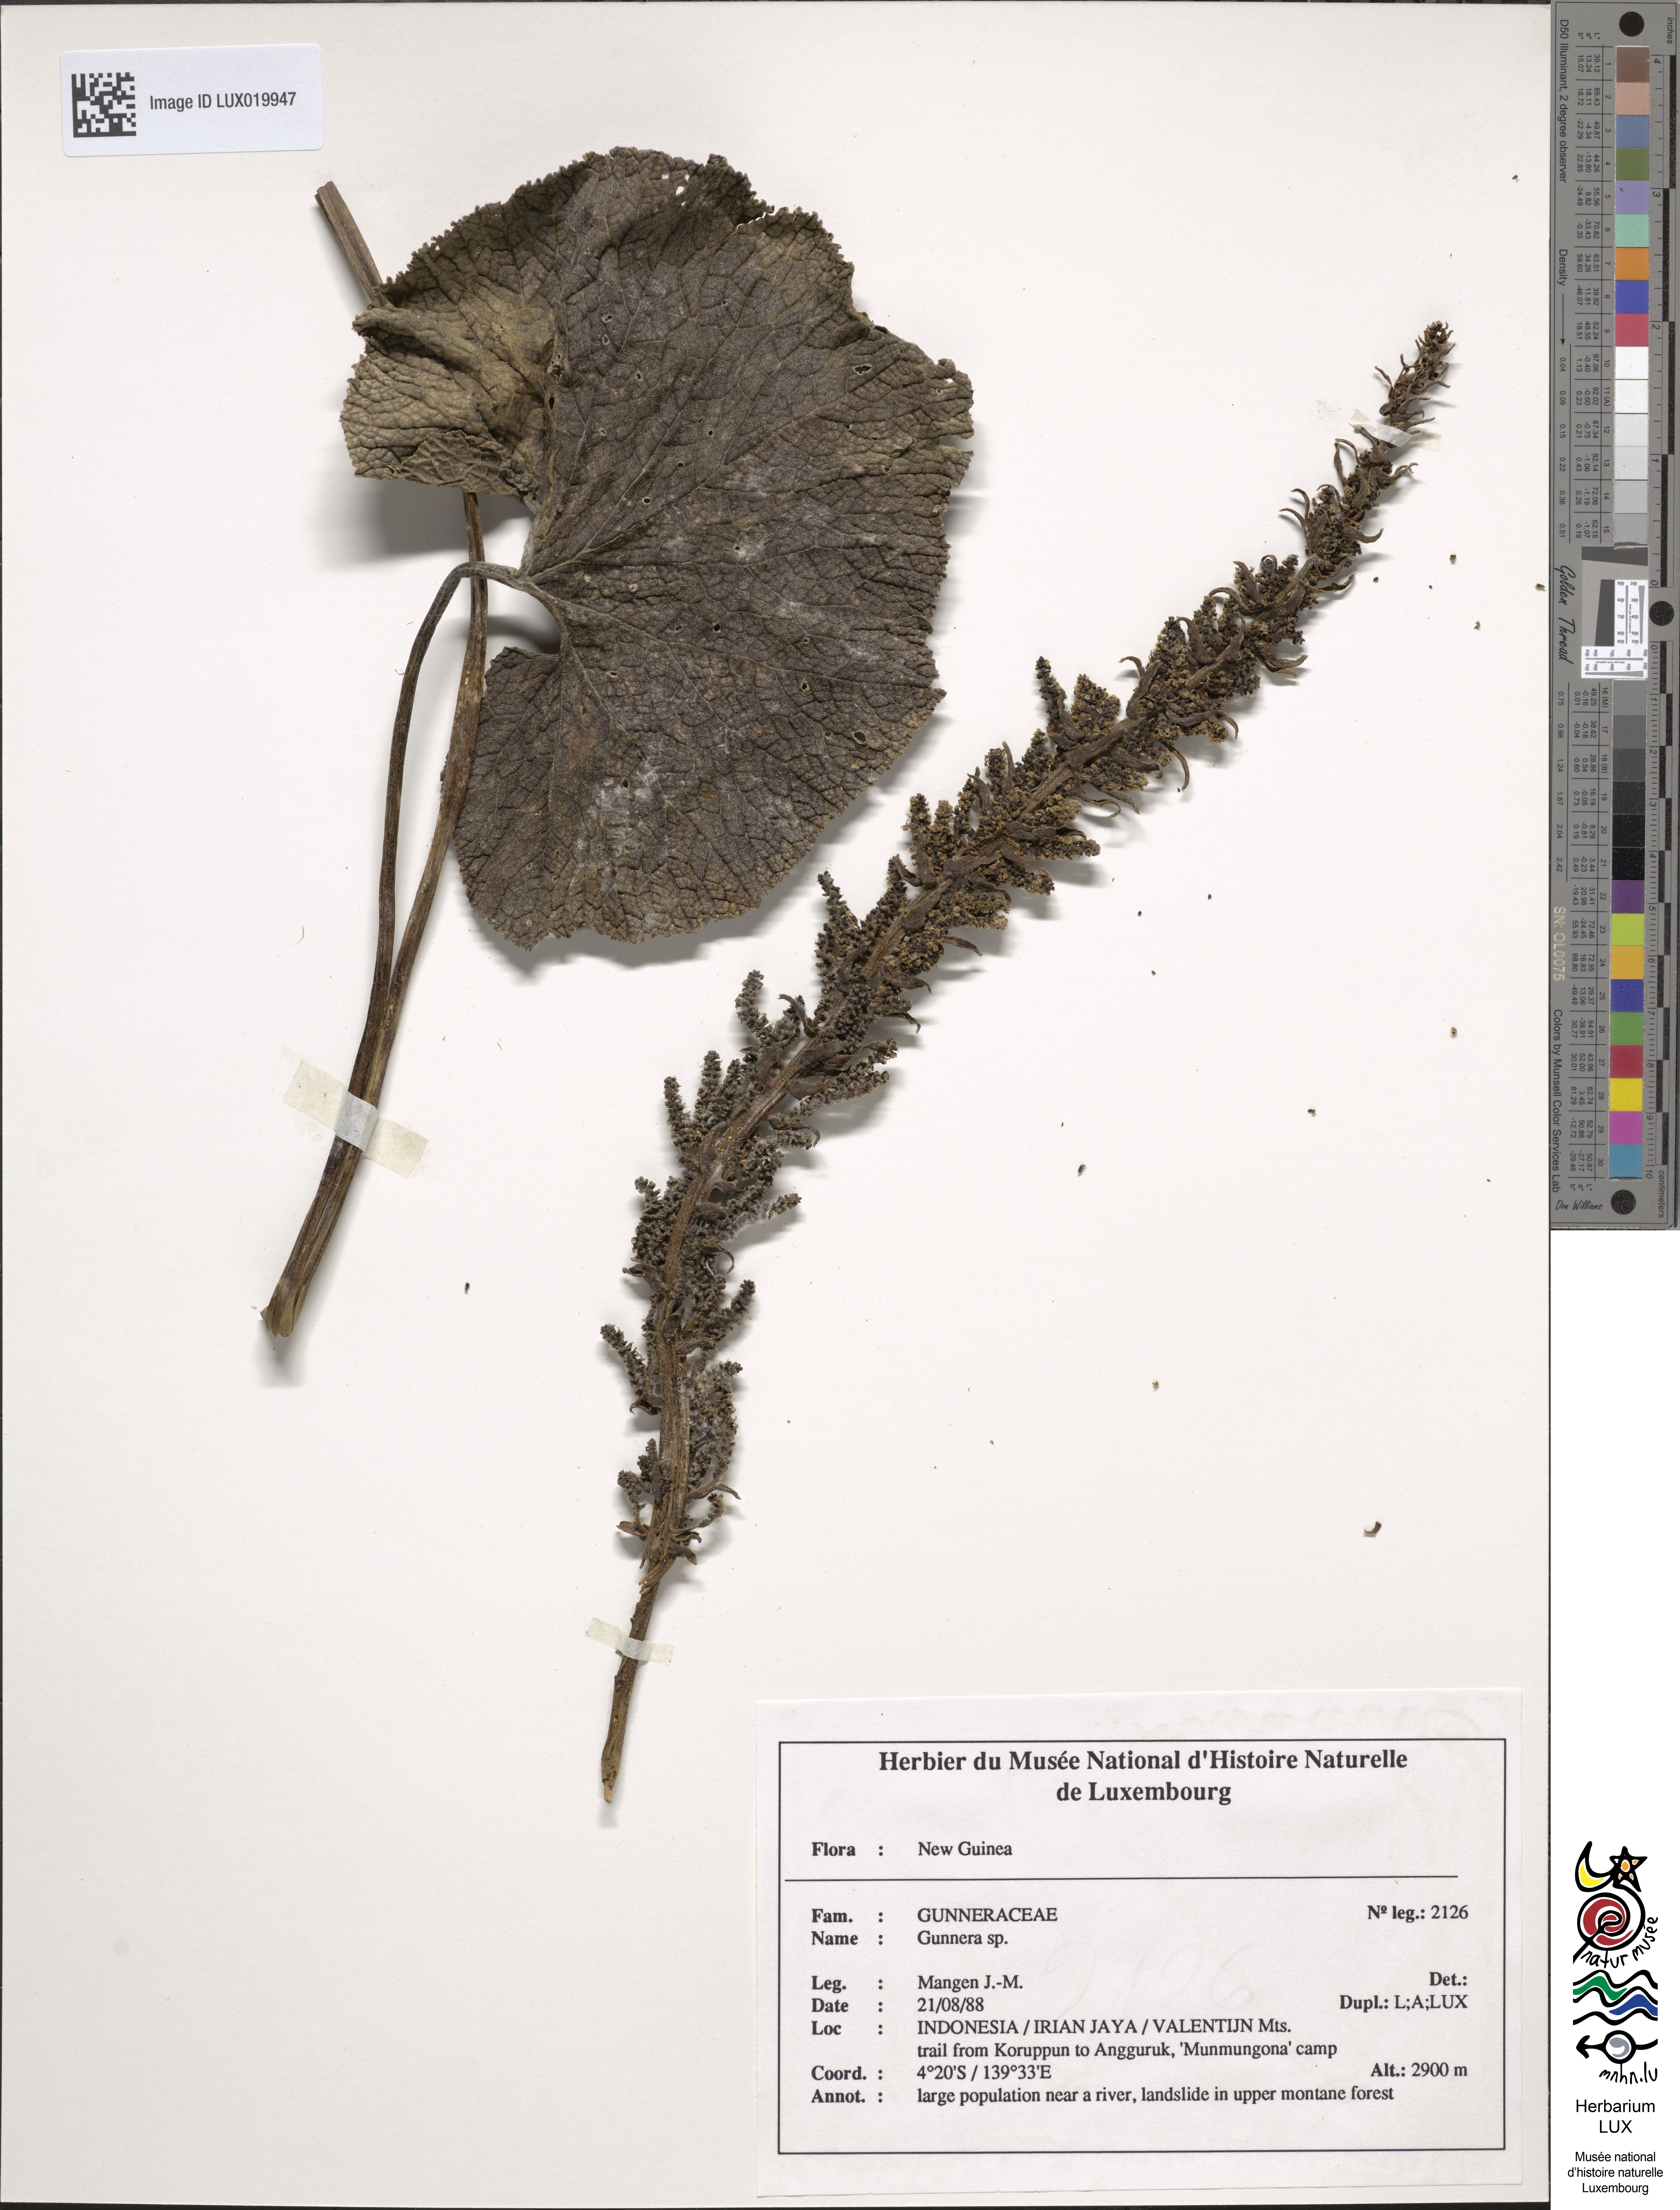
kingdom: Plantae
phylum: Tracheophyta
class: Magnoliopsida
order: Gunnerales
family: Gunneraceae
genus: Gunnera
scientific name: Gunnera
